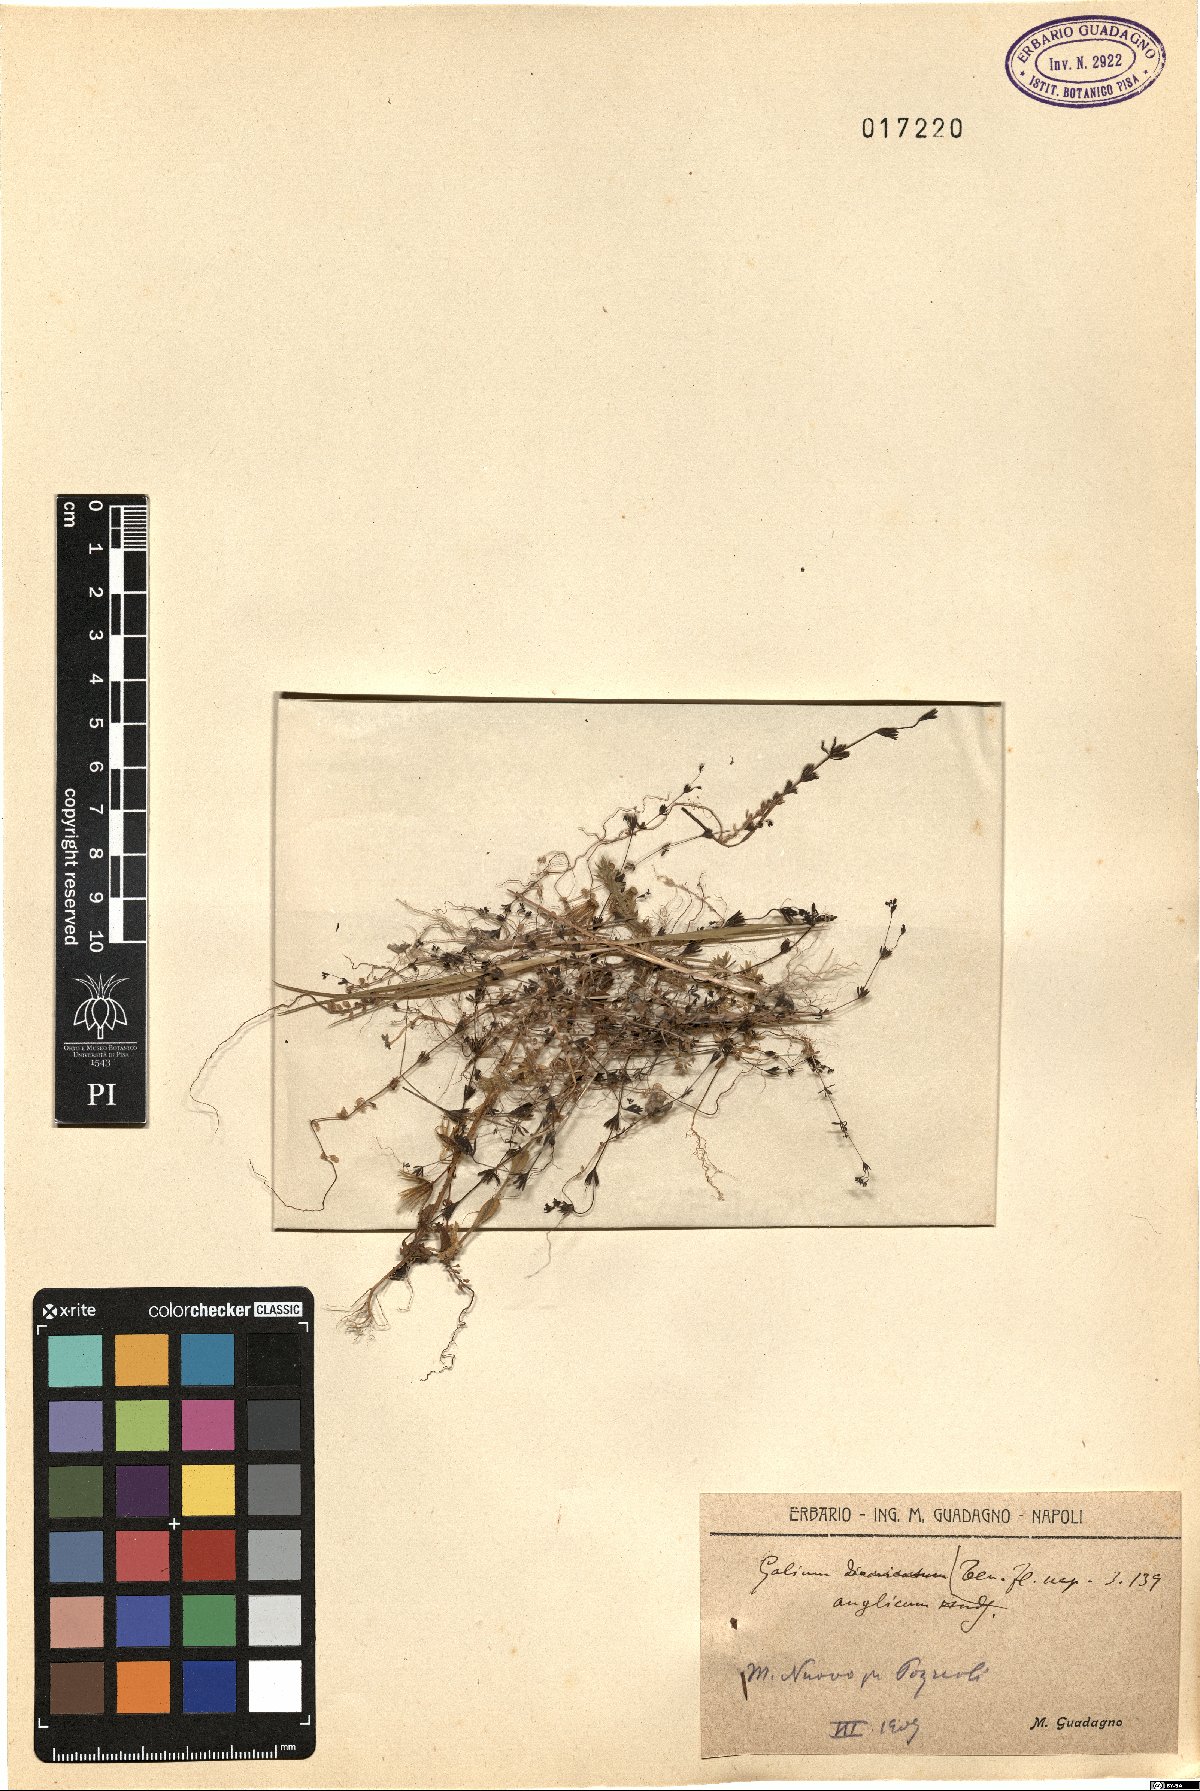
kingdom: Plantae
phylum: Tracheophyta
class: Magnoliopsida
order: Gentianales
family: Rubiaceae
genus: Galium
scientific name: Galium anglicum
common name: English bedstraw
